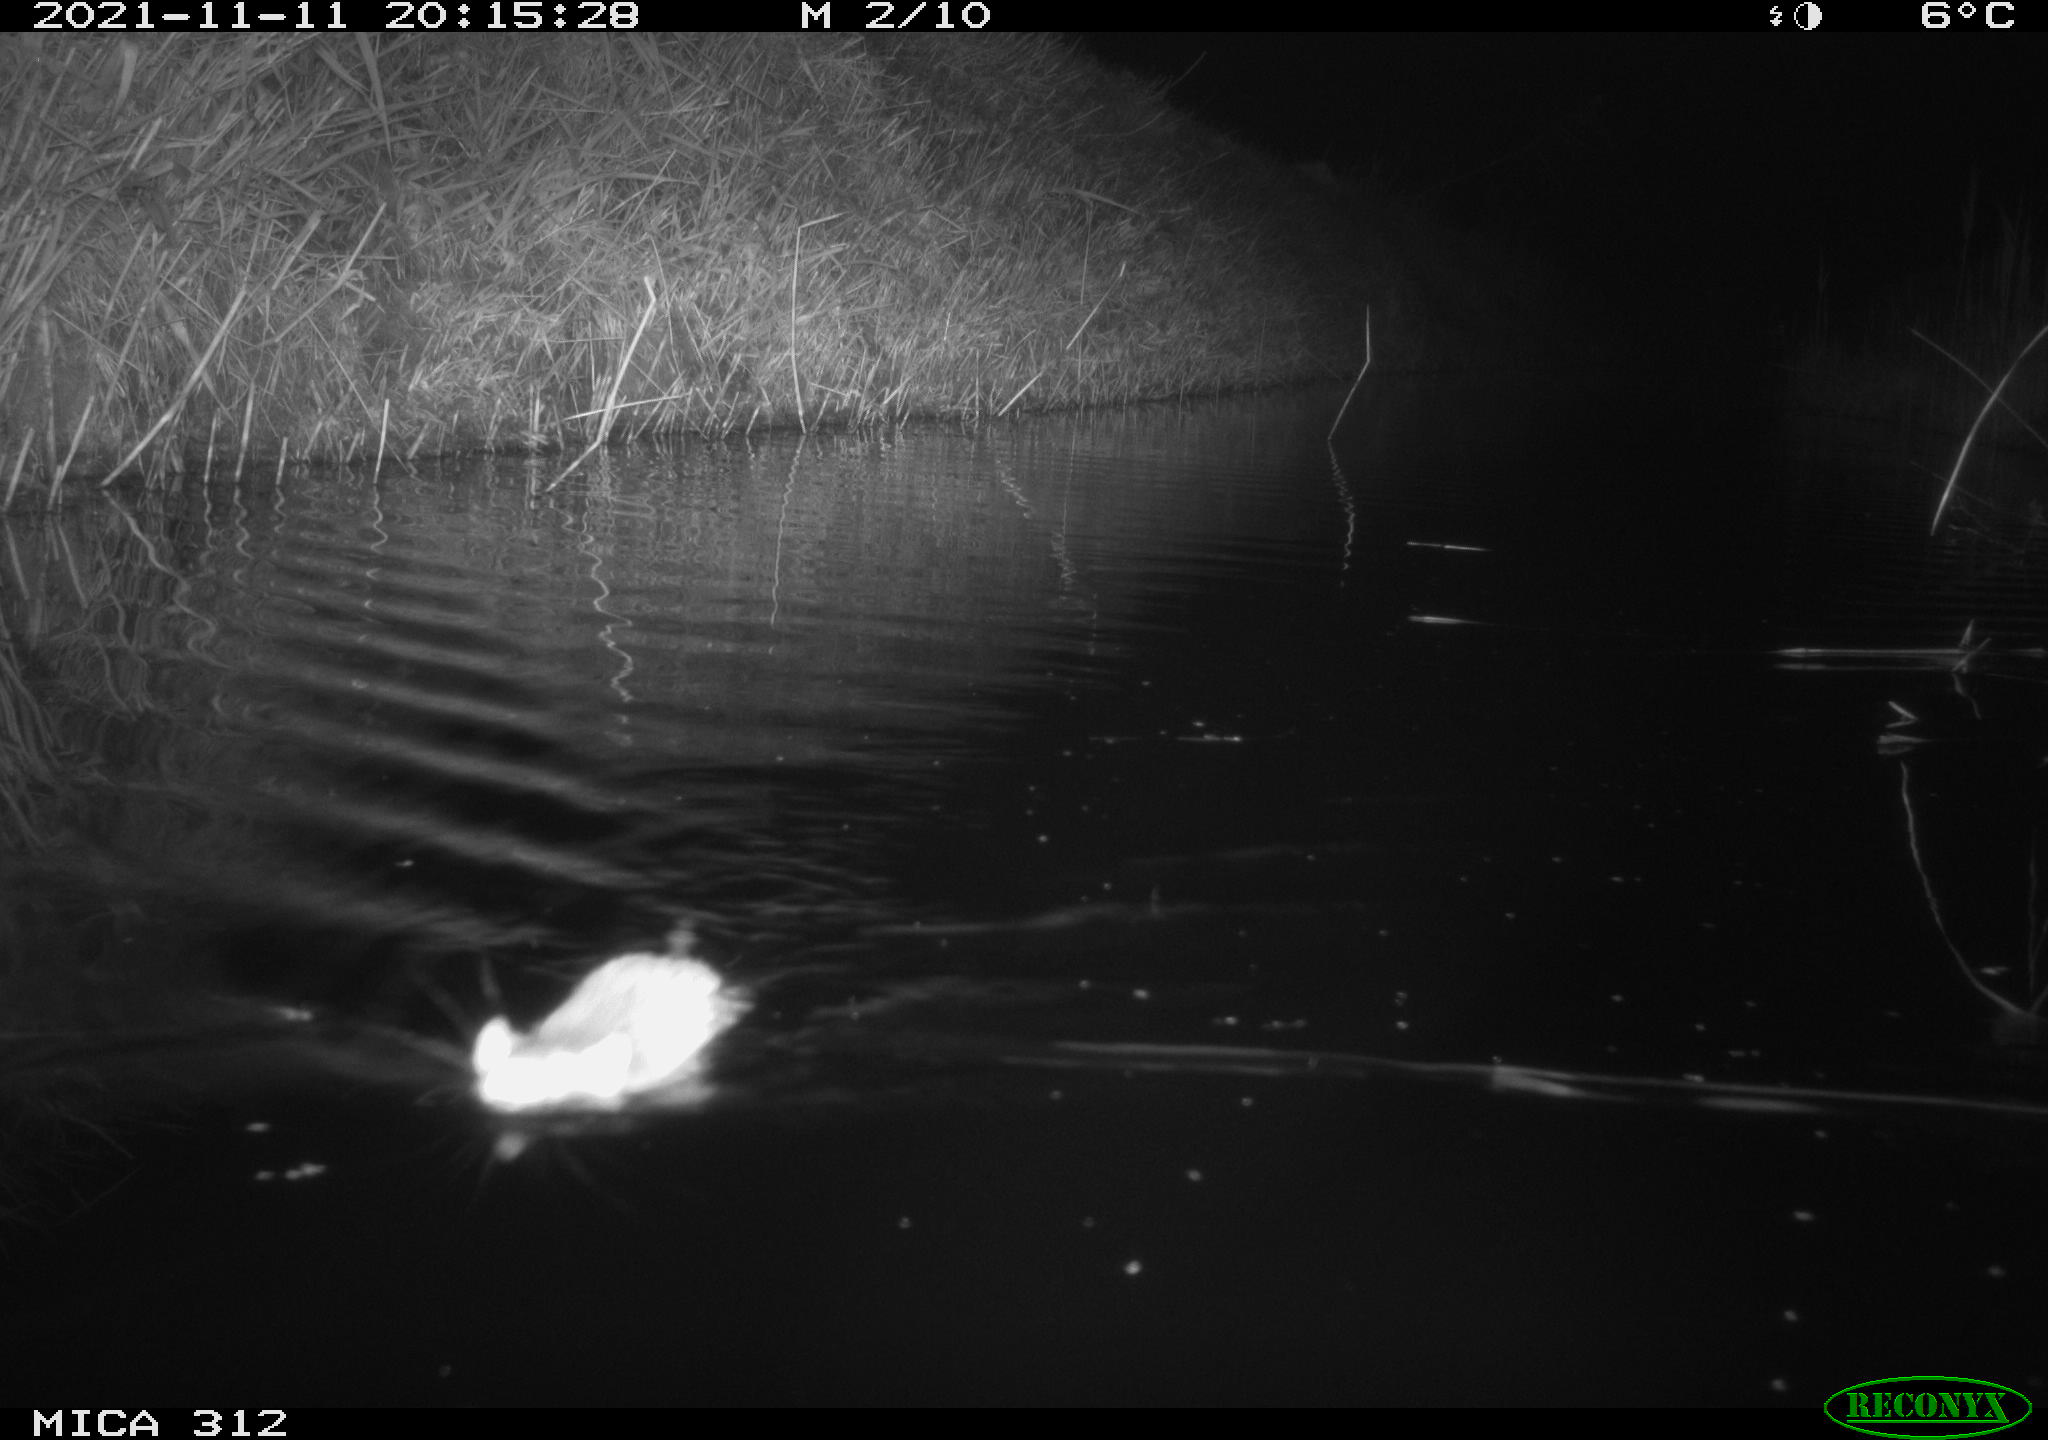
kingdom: Animalia
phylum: Chordata
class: Mammalia
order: Rodentia
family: Muridae
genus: Rattus
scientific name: Rattus norvegicus
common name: Brown rat
